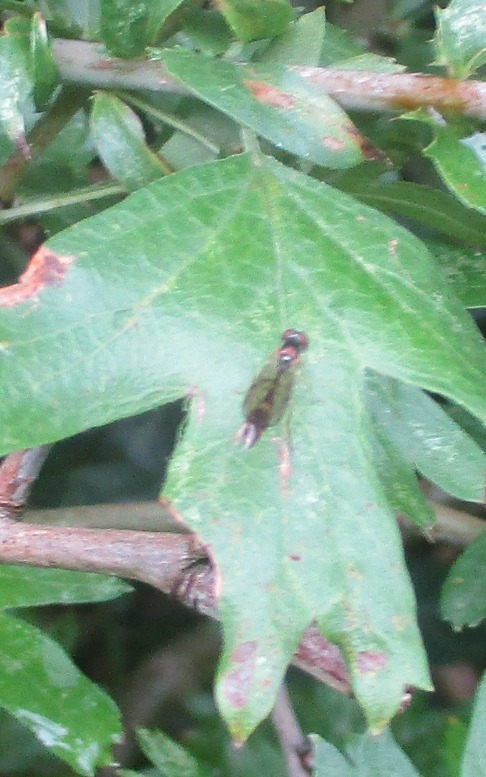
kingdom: Animalia
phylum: Arthropoda
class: Insecta
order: Diptera
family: Syrphidae
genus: Baccha
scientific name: Baccha elongata
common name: Mat spydsvirreflue
